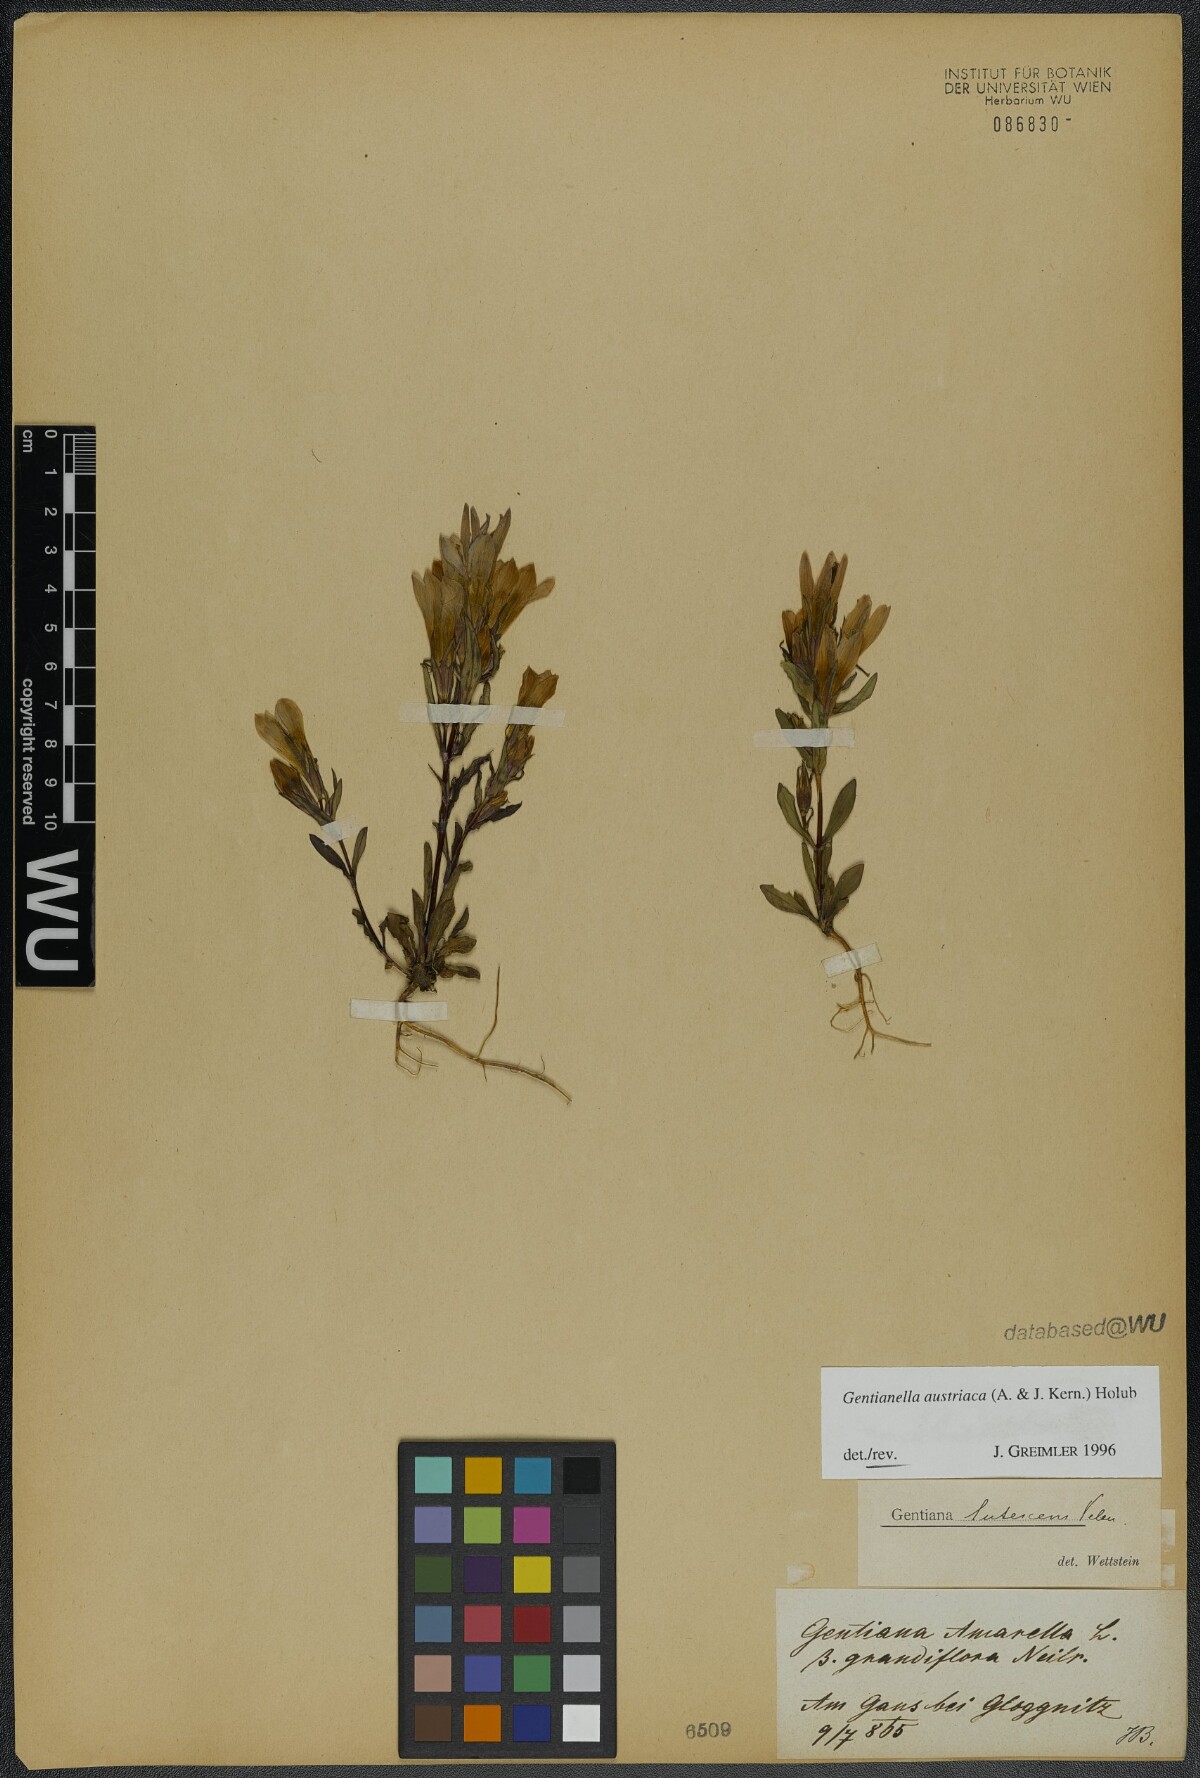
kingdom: Plantae
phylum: Tracheophyta
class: Magnoliopsida
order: Gentianales
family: Gentianaceae
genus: Gentianella
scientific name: Gentianella austriaca
